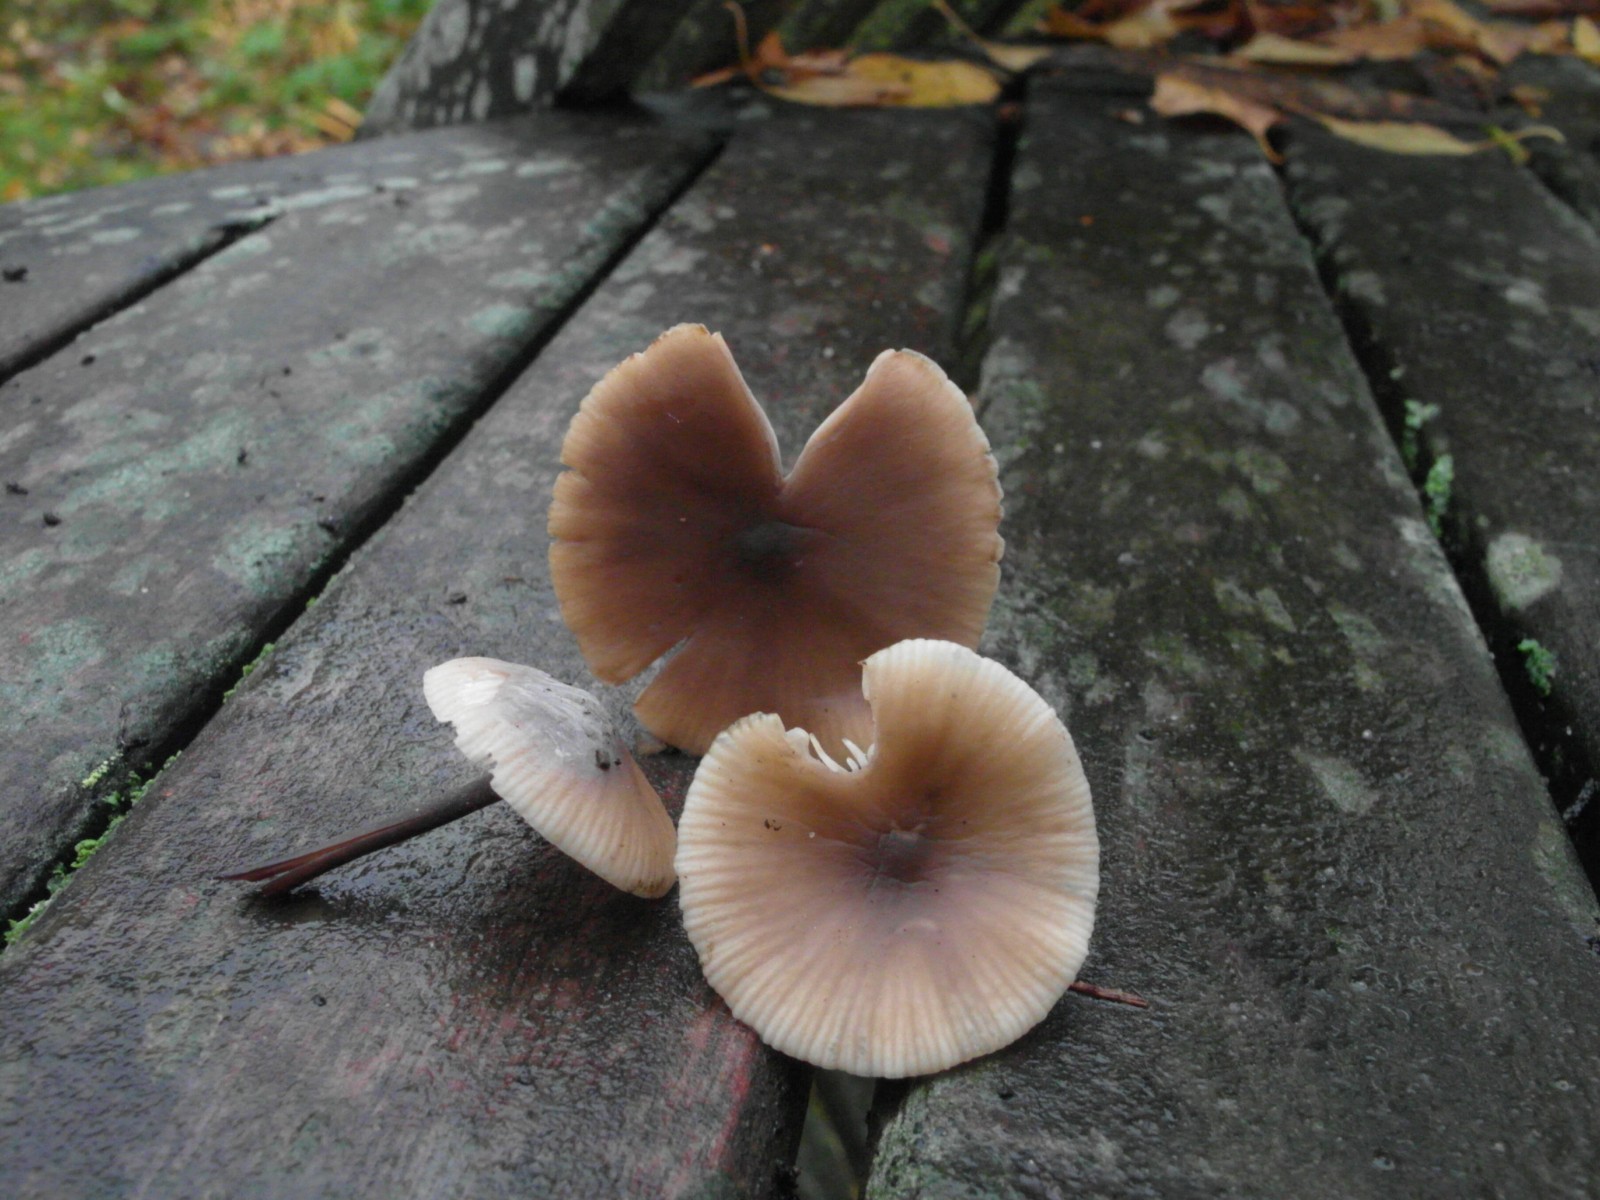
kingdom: Fungi
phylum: Basidiomycota
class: Agaricomycetes
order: Agaricales
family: Omphalotaceae
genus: Mycetinis
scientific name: Mycetinis alliaceus
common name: stor løghat
